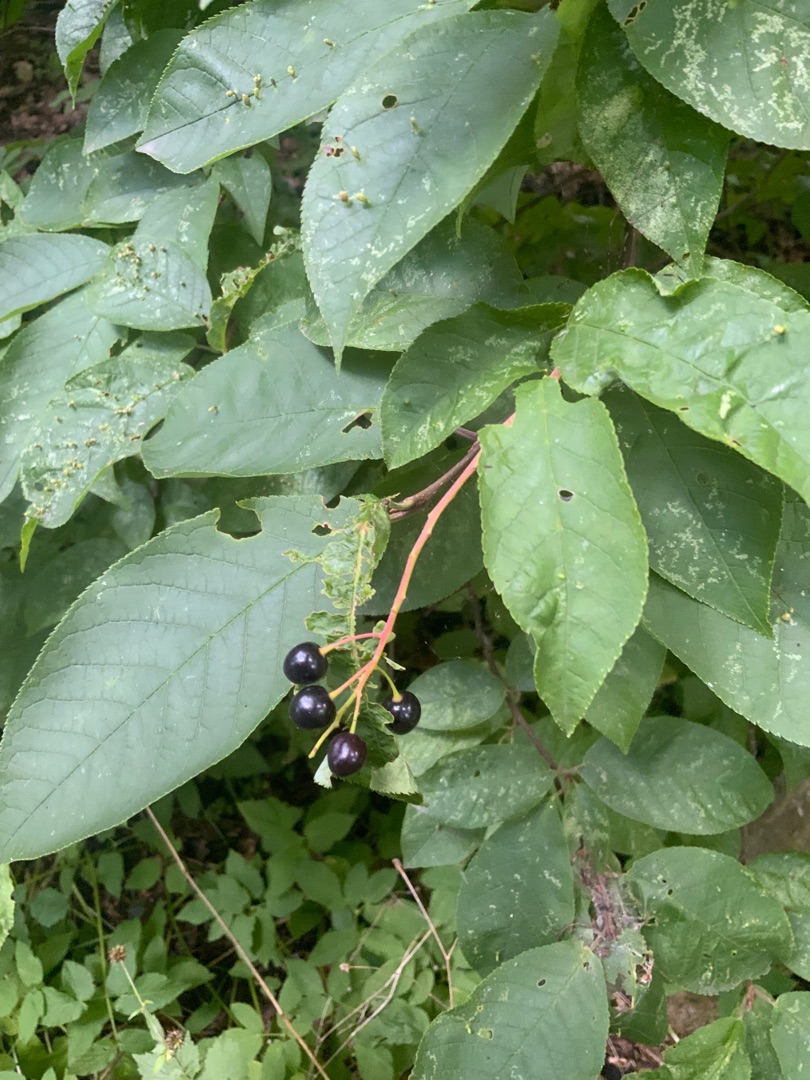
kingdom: Plantae
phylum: Tracheophyta
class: Magnoliopsida
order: Rosales
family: Rosaceae
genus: Prunus
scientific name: Prunus padus
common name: Almindelig hæg
